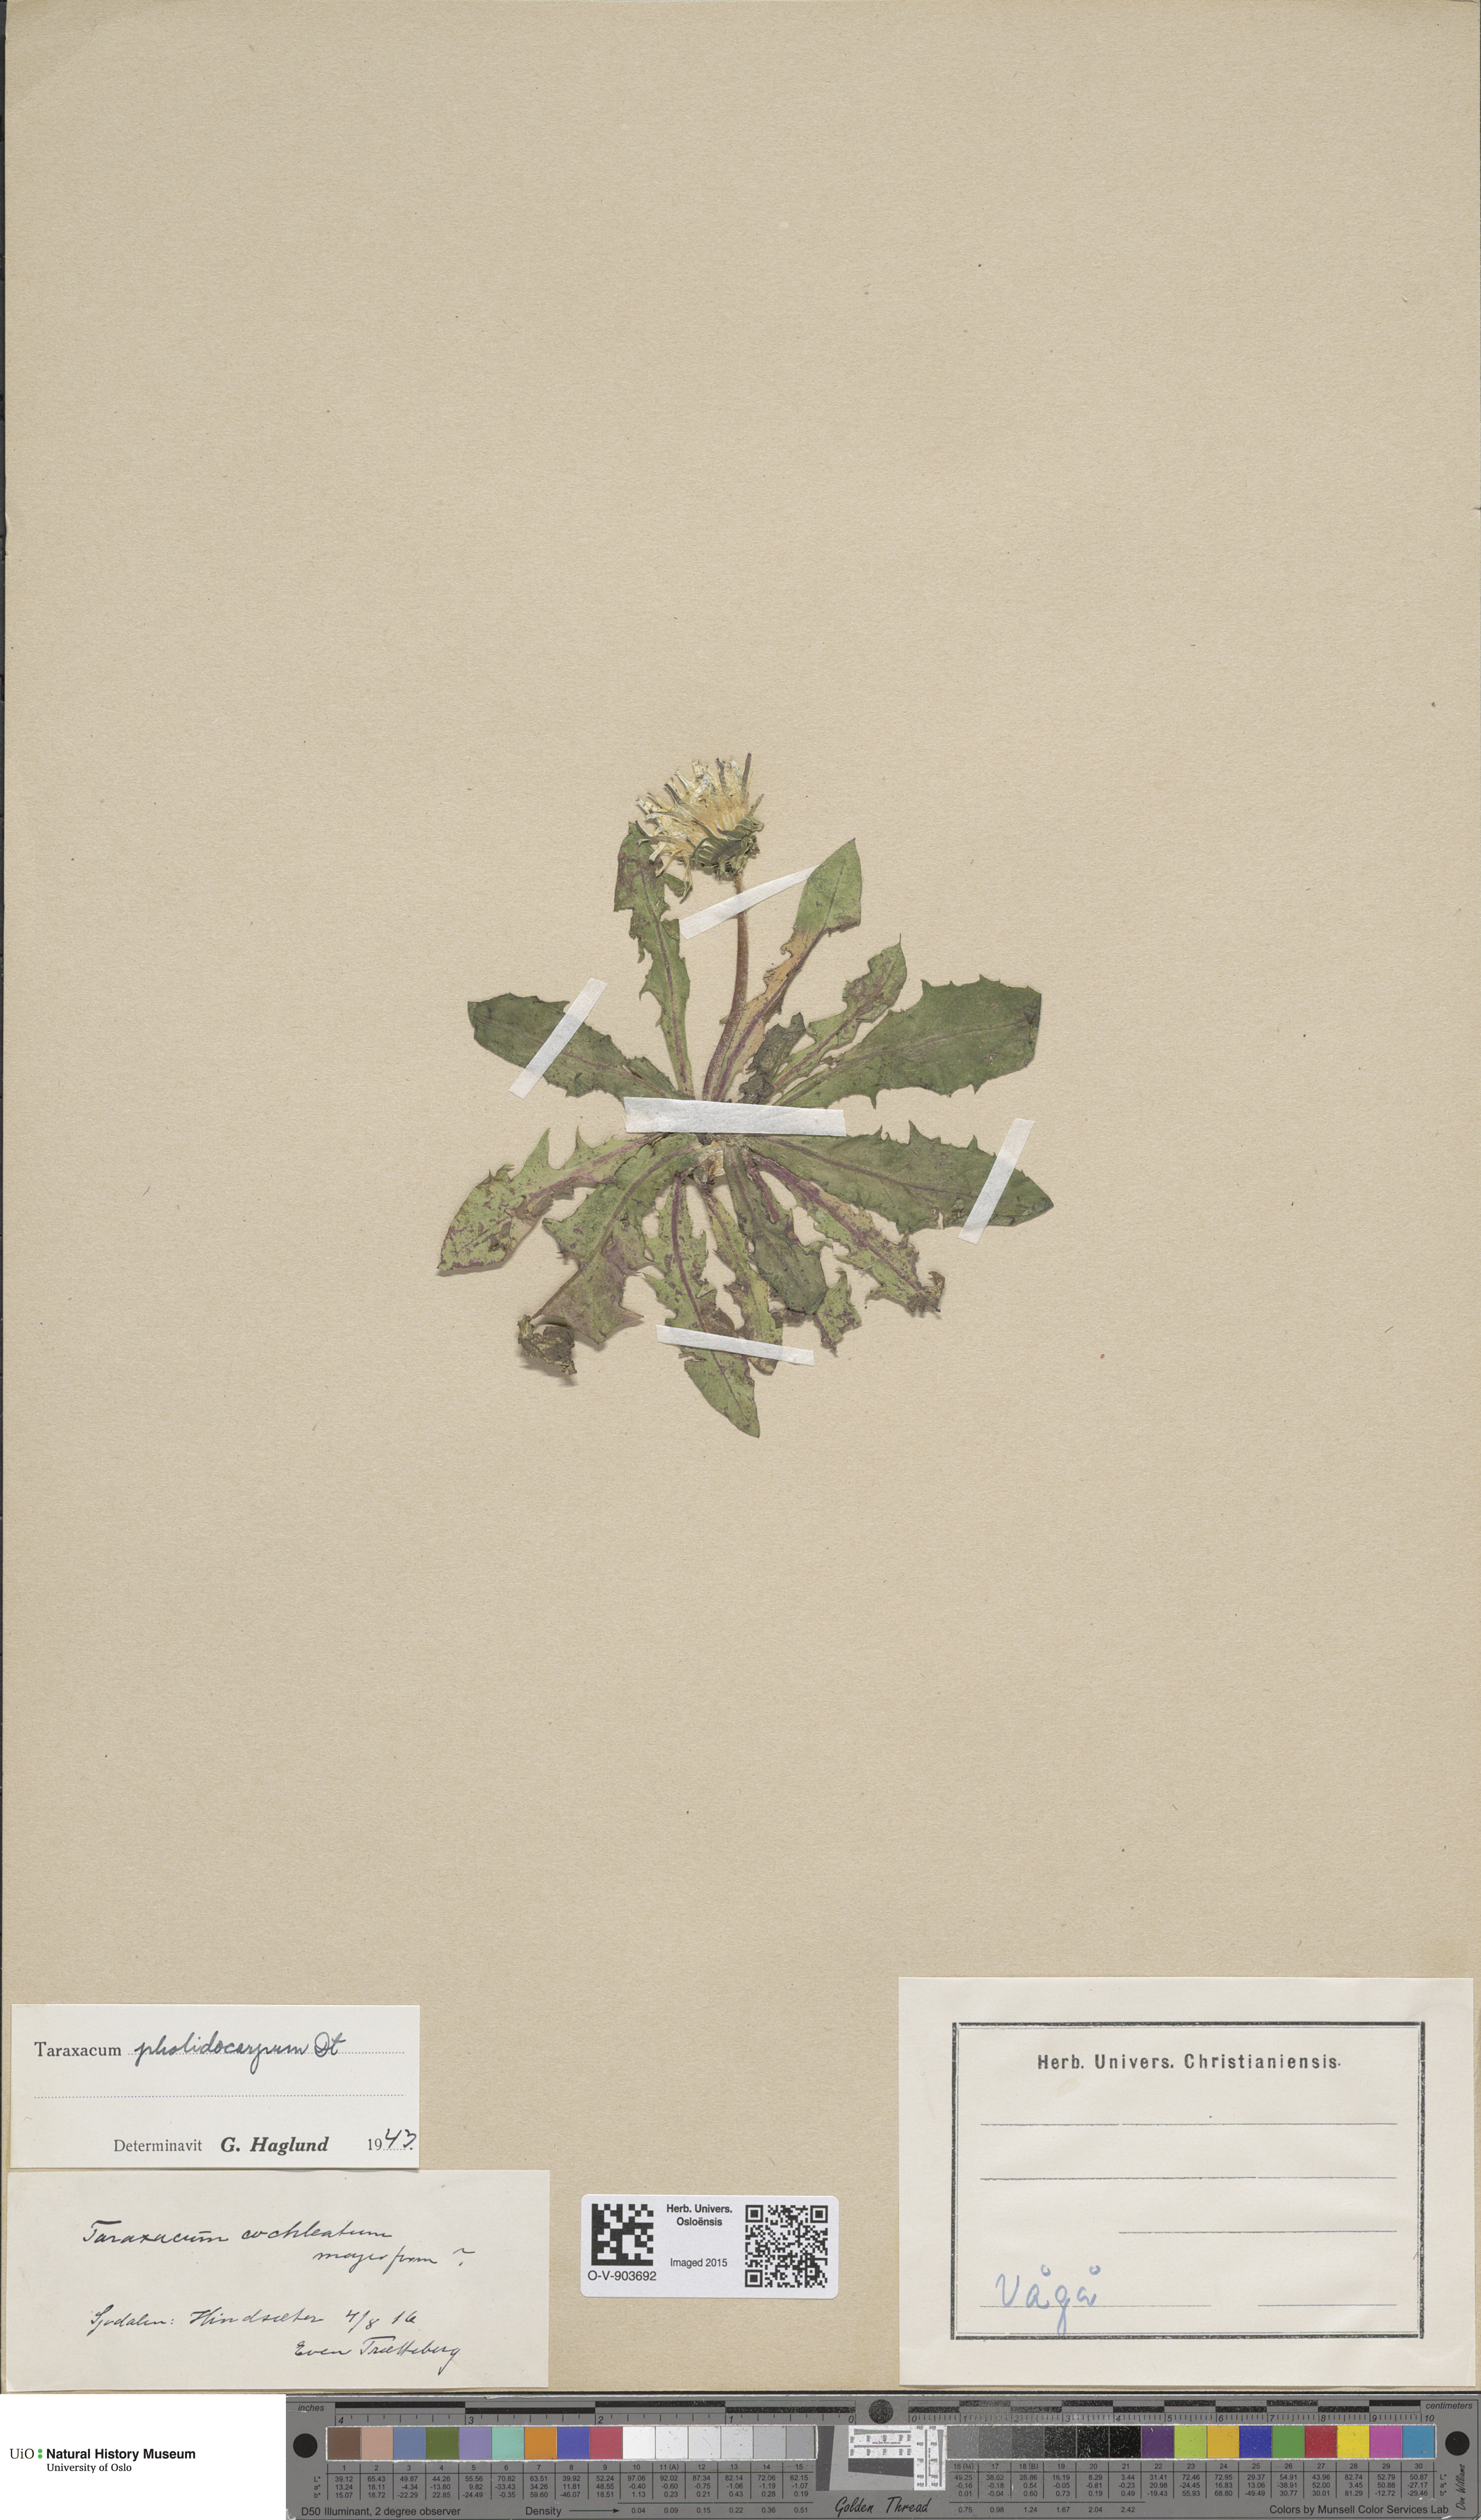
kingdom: Plantae
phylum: Tracheophyta
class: Magnoliopsida
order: Asterales
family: Asteraceae
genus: Taraxacum
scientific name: Taraxacum pholidocarpum
